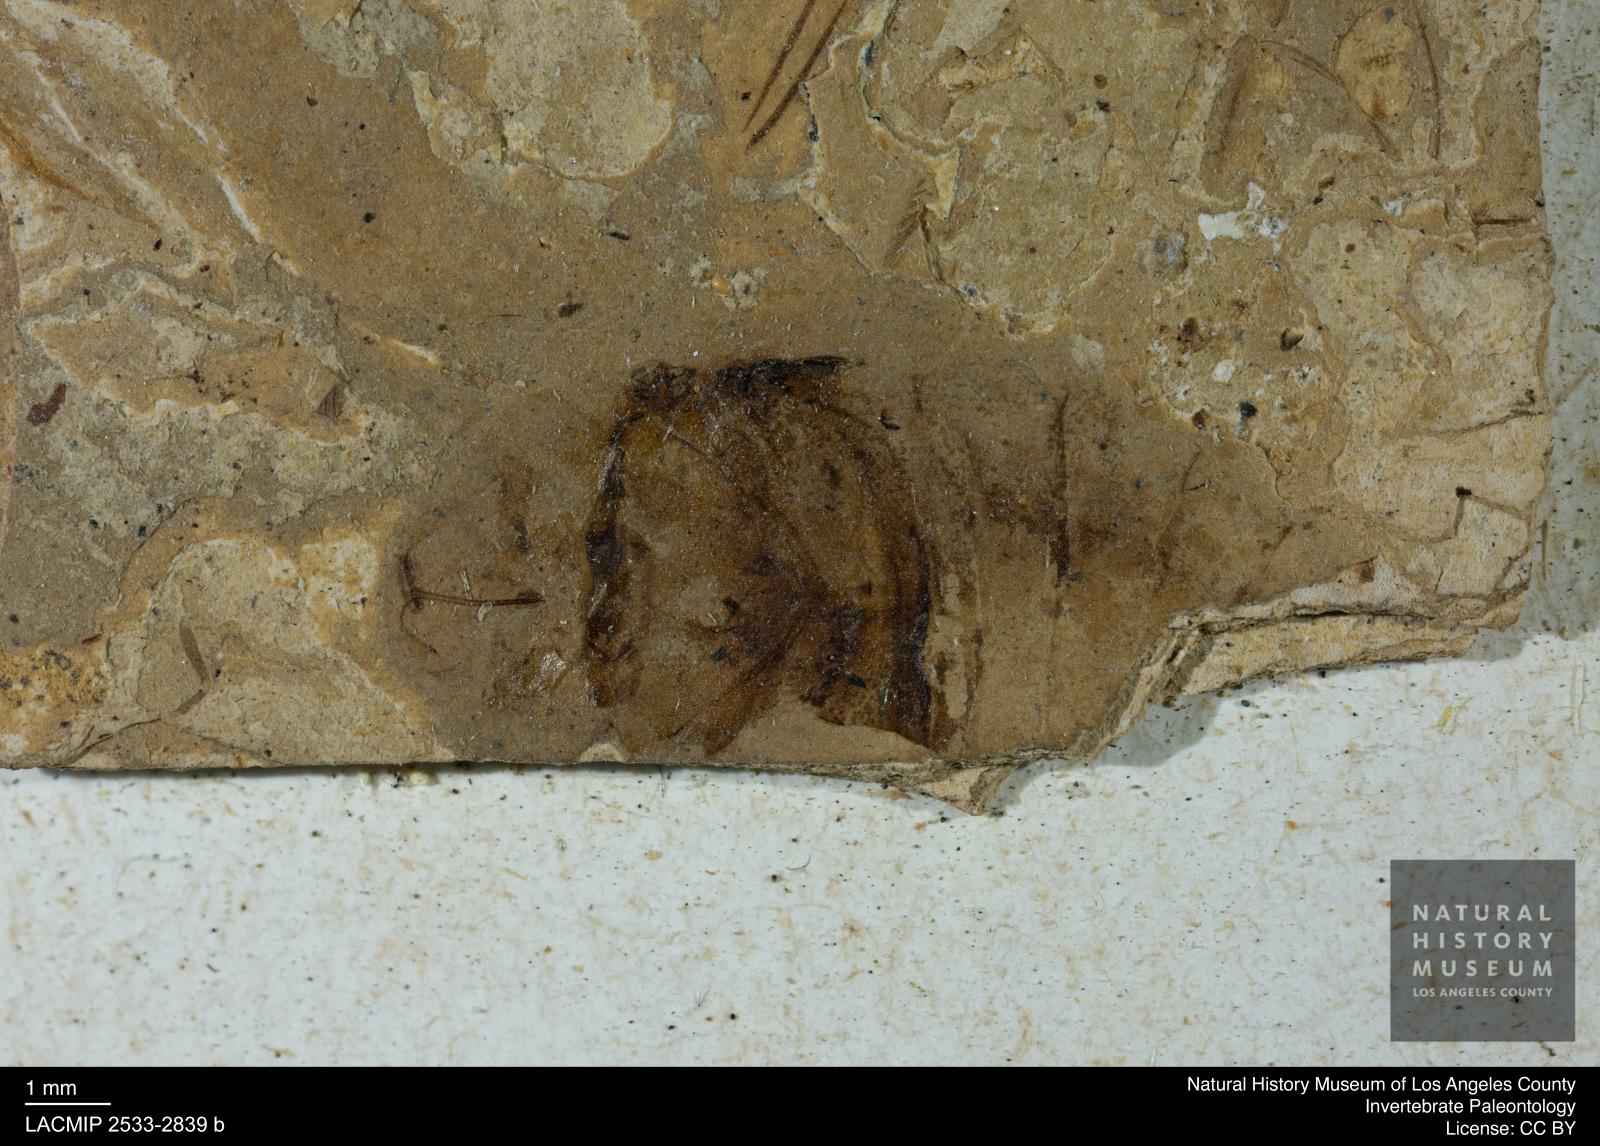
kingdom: Animalia
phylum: Arthropoda
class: Insecta
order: Hemiptera
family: Naucoridae
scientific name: Naucoridae
